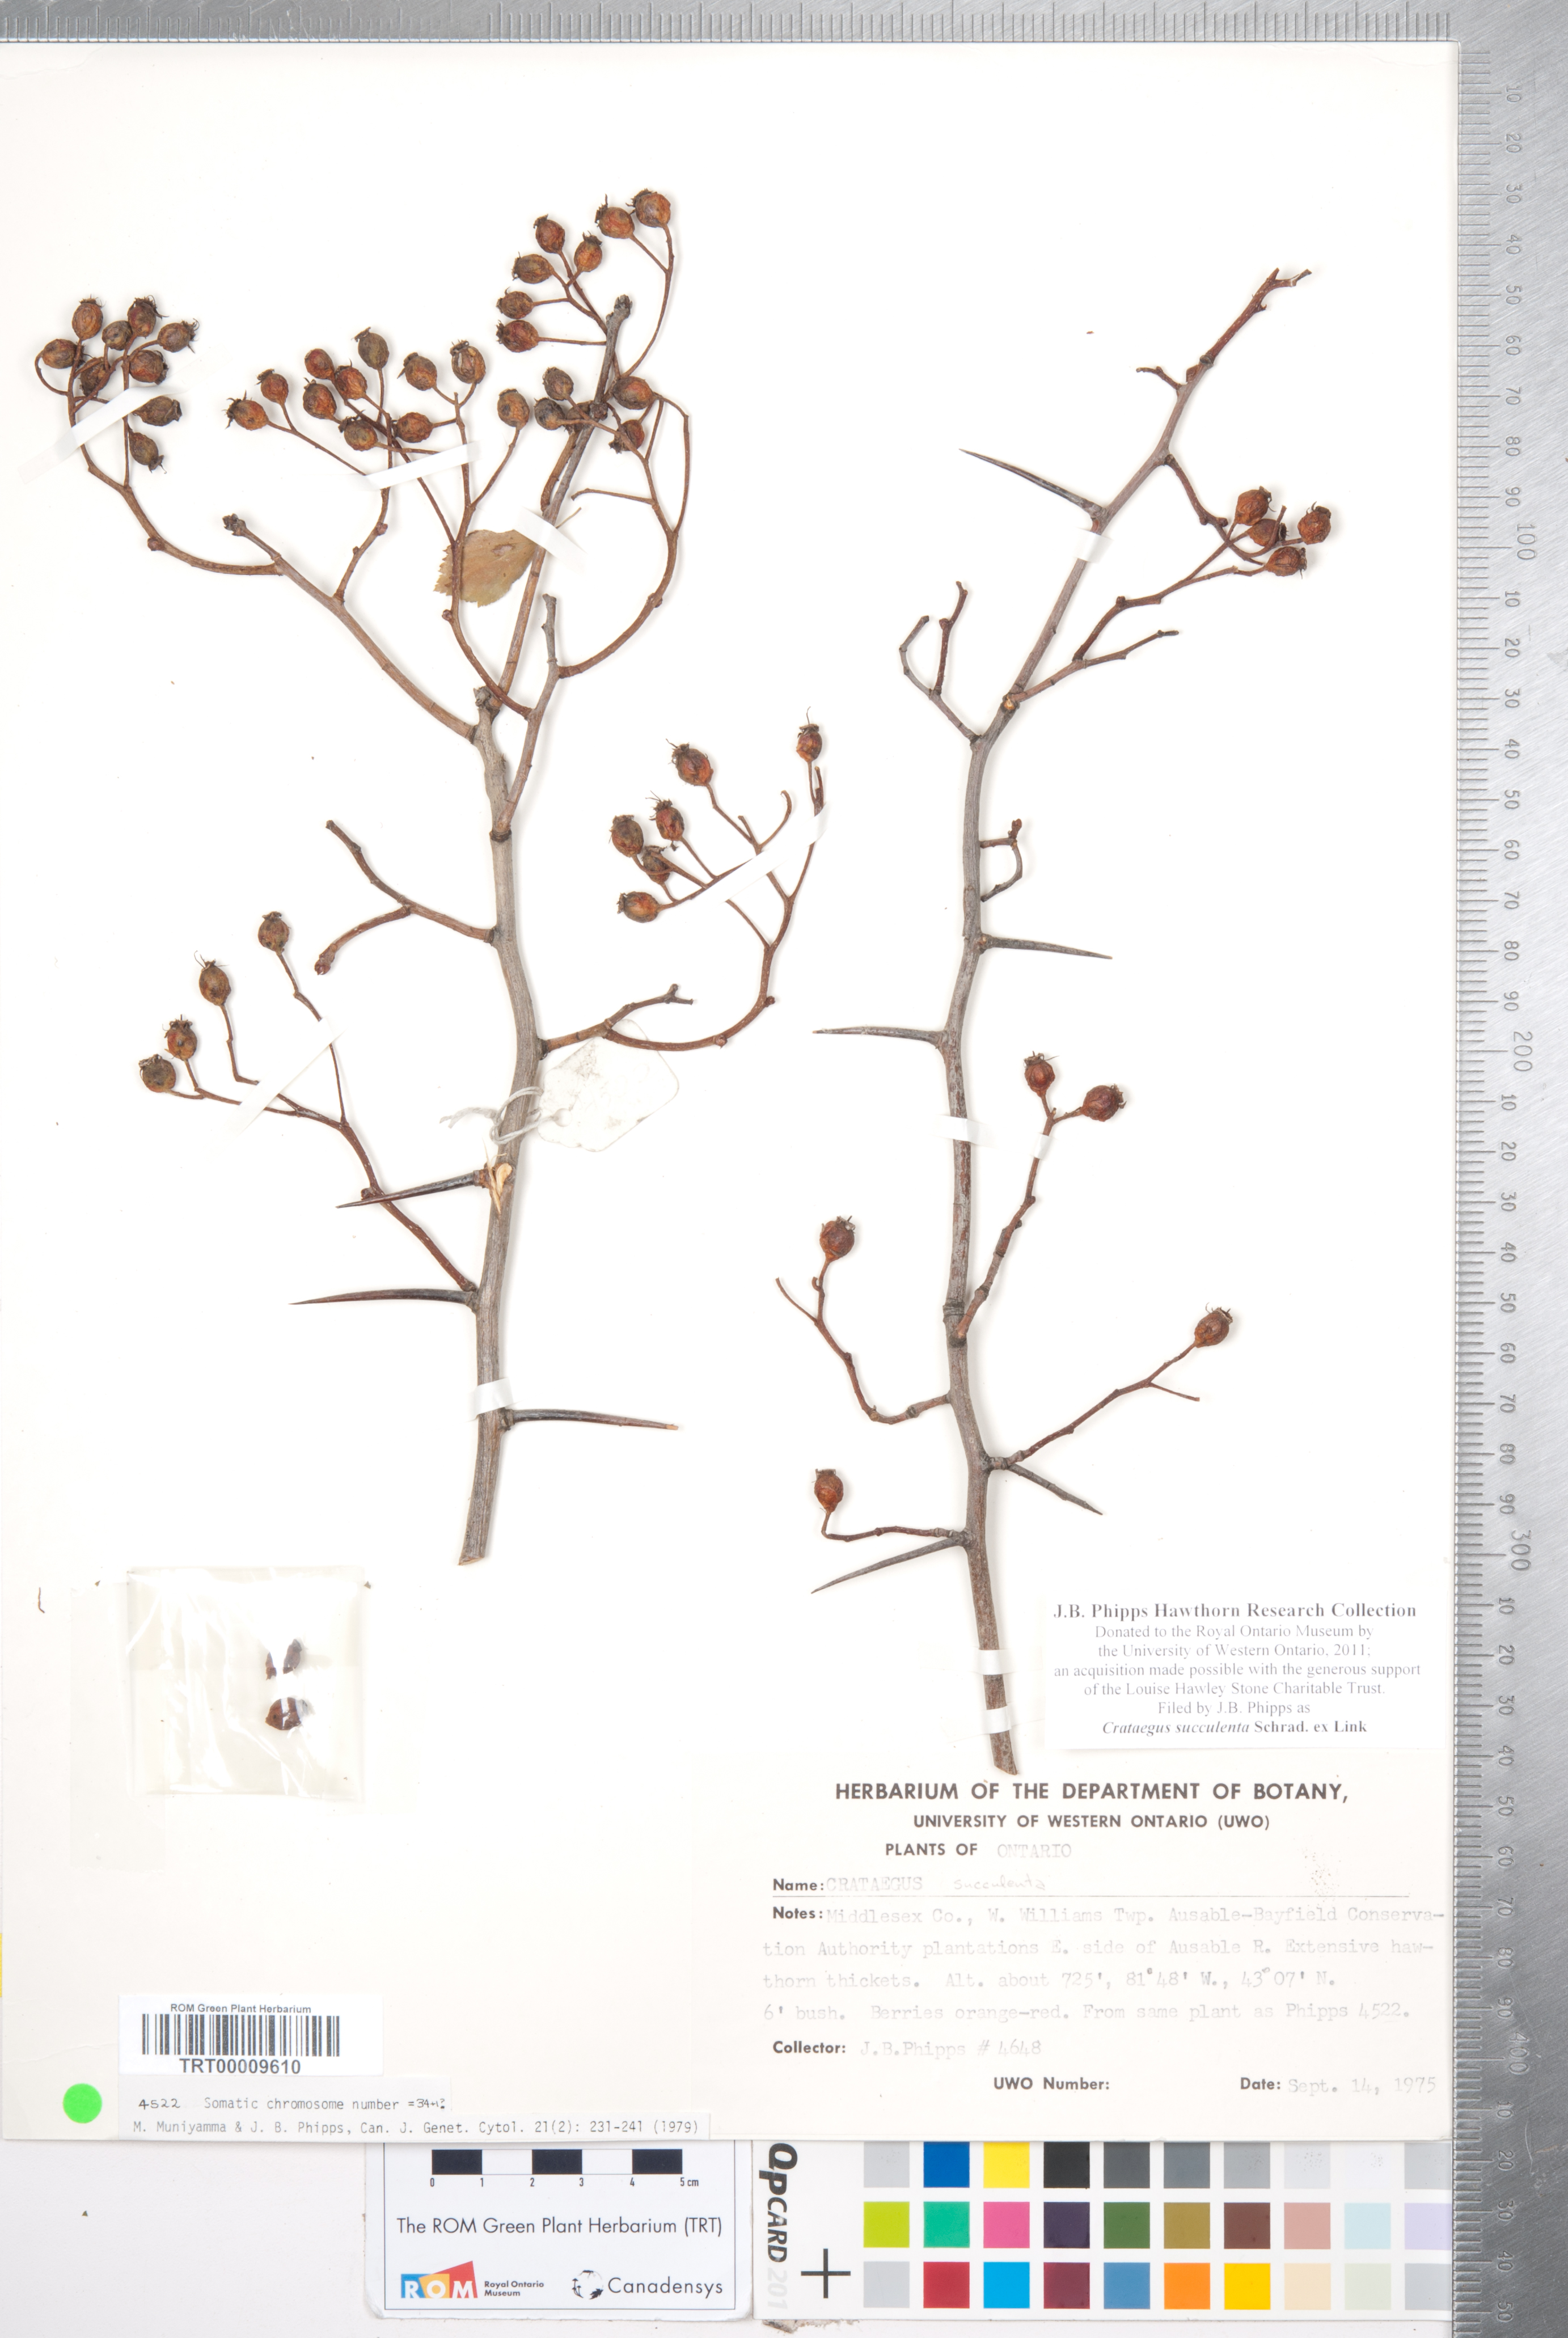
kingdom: Plantae
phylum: Tracheophyta
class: Magnoliopsida
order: Rosales
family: Rosaceae
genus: Crataegus
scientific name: Crataegus succulenta
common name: Fleshy hawthorn
